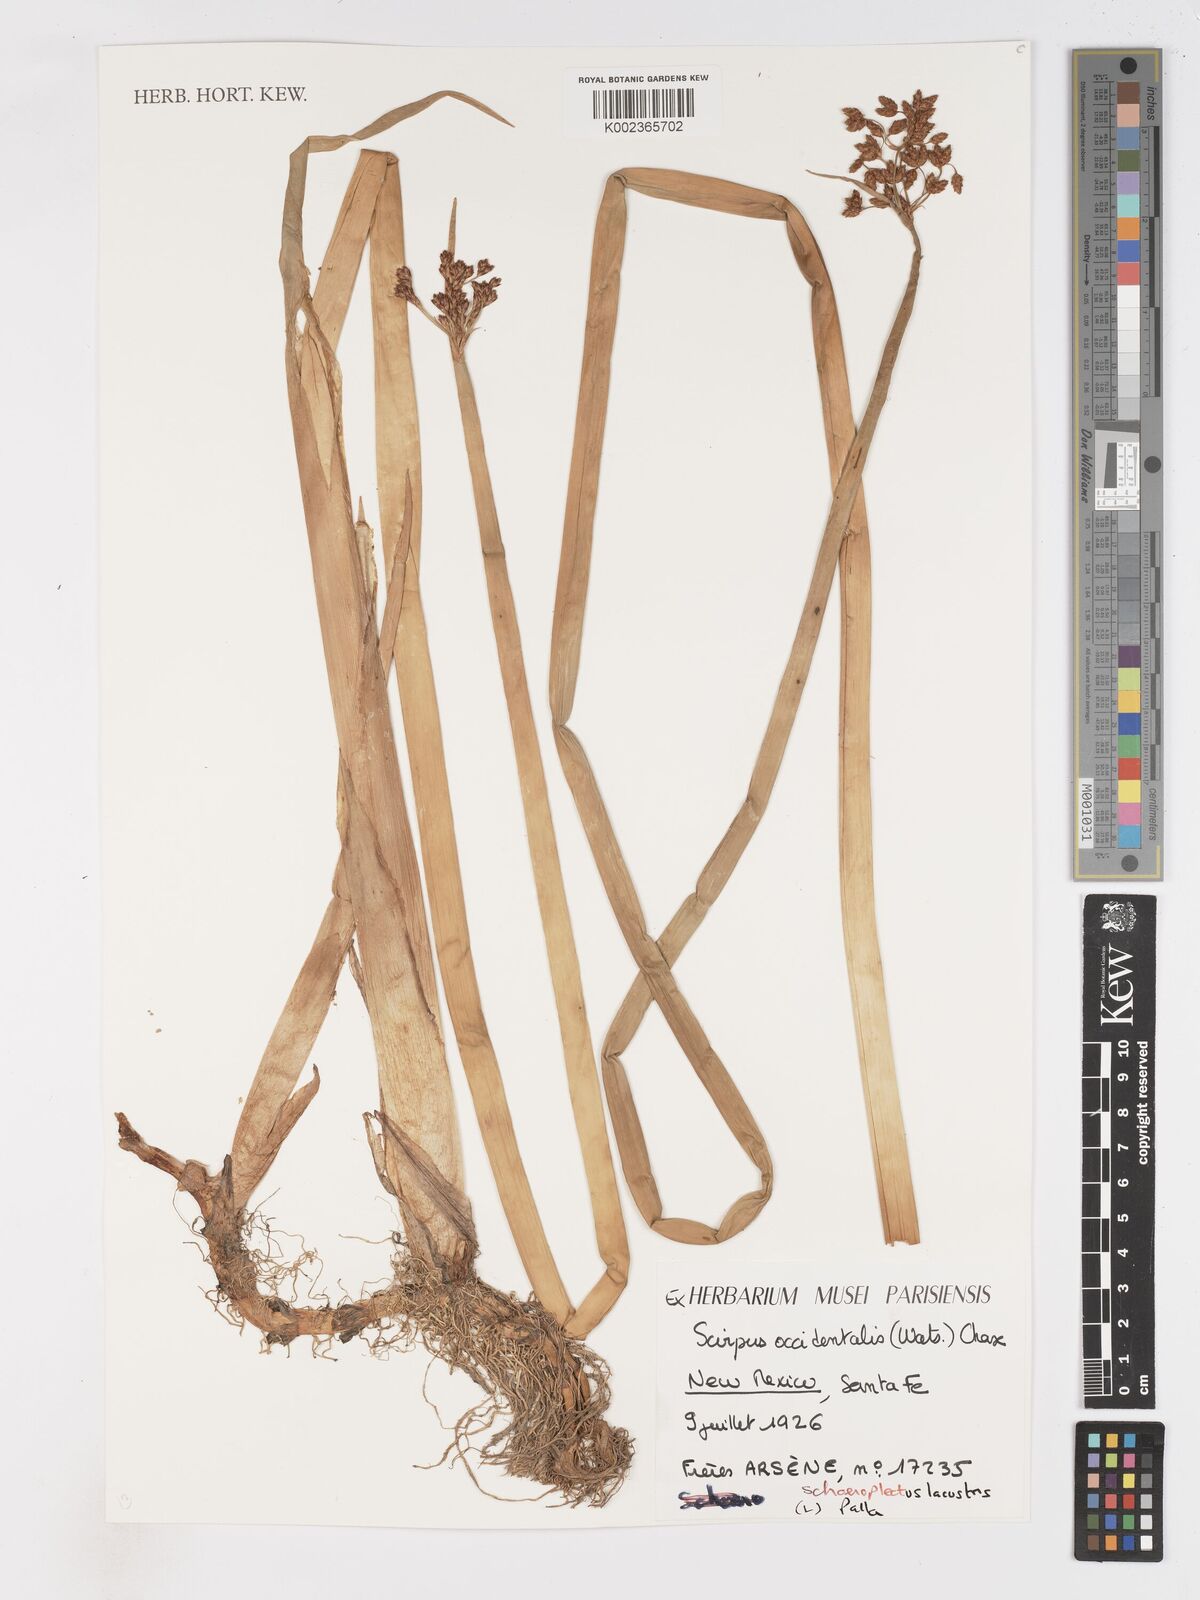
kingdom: Plantae
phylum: Tracheophyta
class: Liliopsida
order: Poales
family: Cyperaceae
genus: Schoenoplectus
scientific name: Schoenoplectus lacustris
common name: Common club-rush
